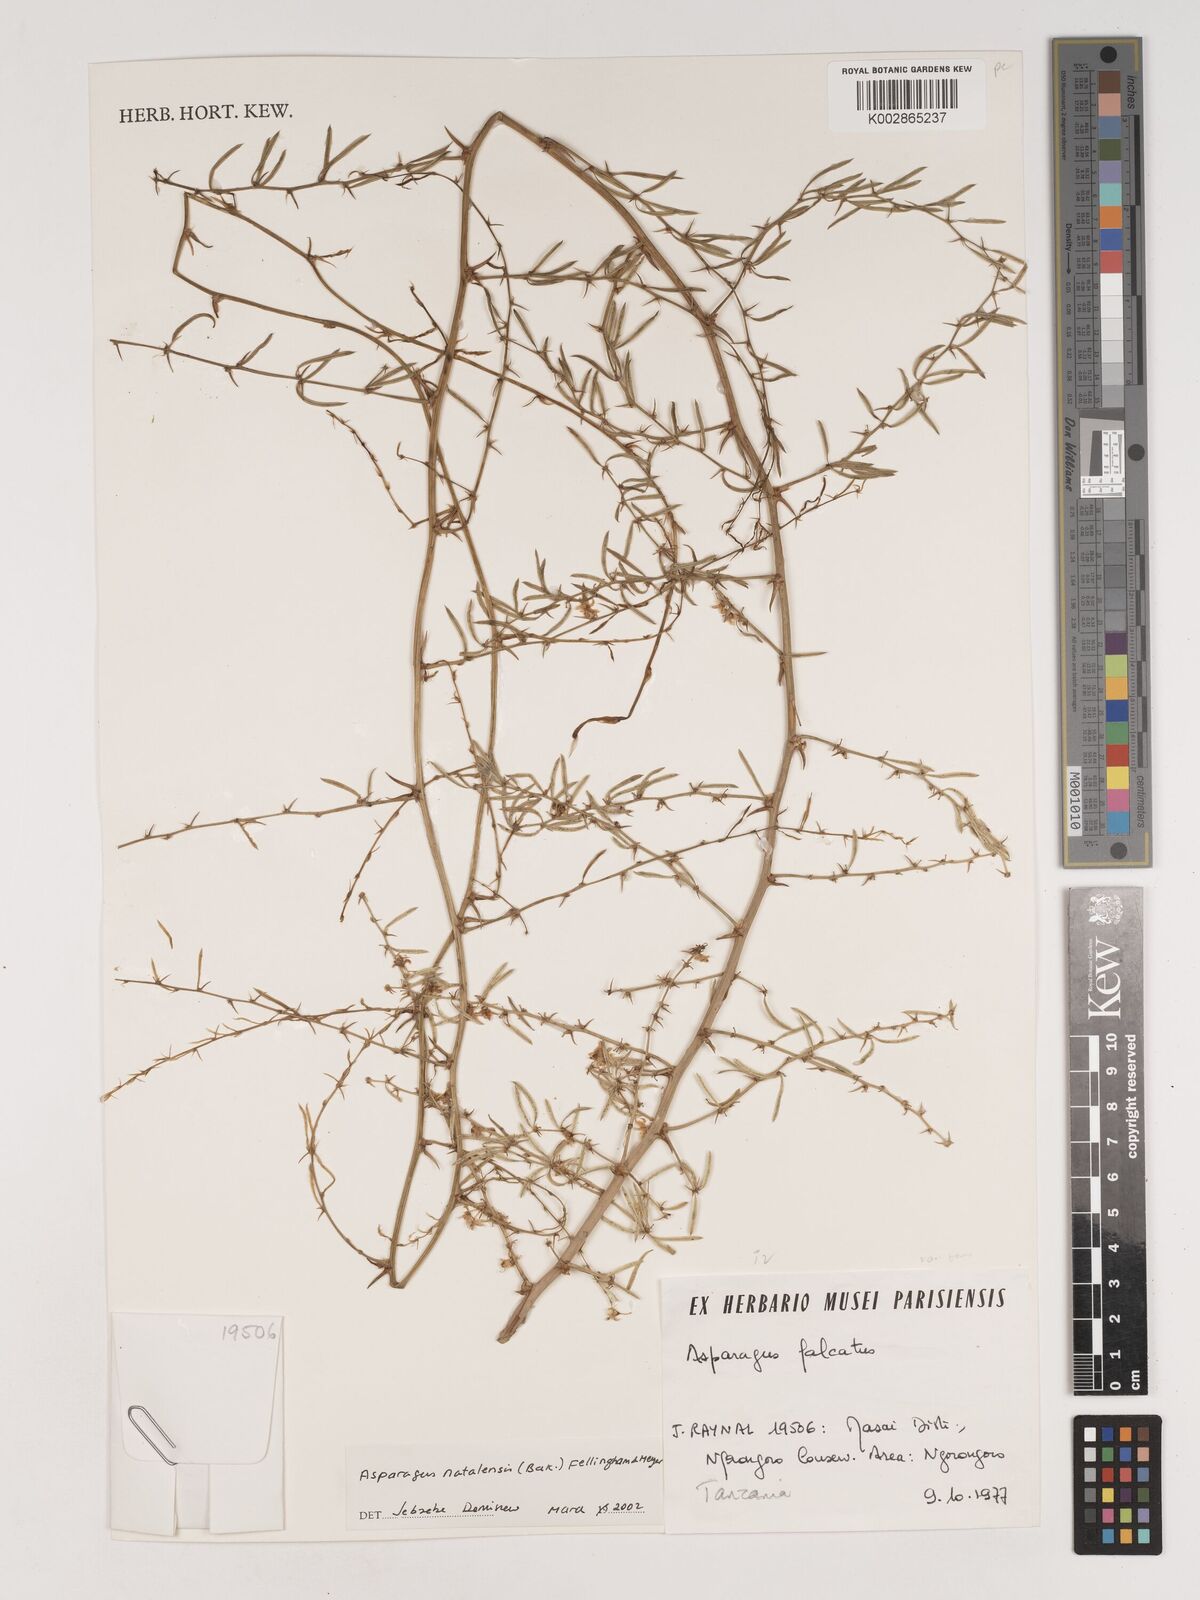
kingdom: Plantae
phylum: Tracheophyta
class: Liliopsida
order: Asparagales
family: Asparagaceae
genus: Asparagus
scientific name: Asparagus natalensis
